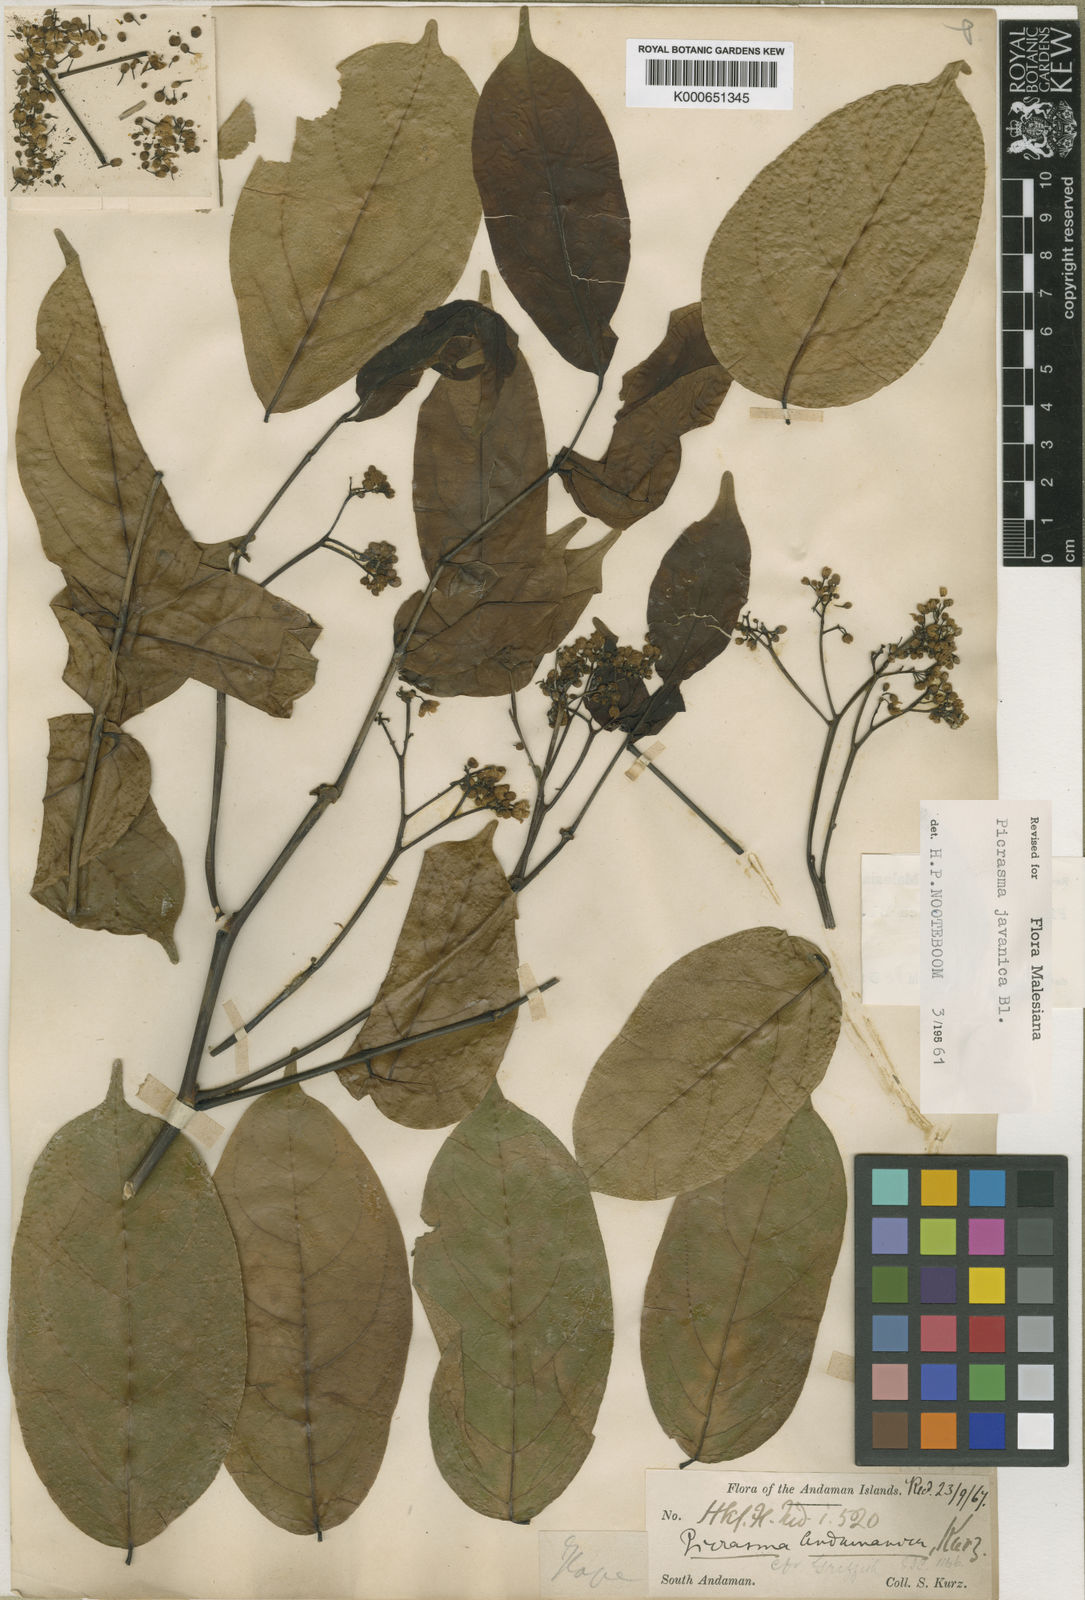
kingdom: Plantae
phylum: Tracheophyta
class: Magnoliopsida
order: Sapindales
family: Simaroubaceae
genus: Picrasma
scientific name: Picrasma javanica
